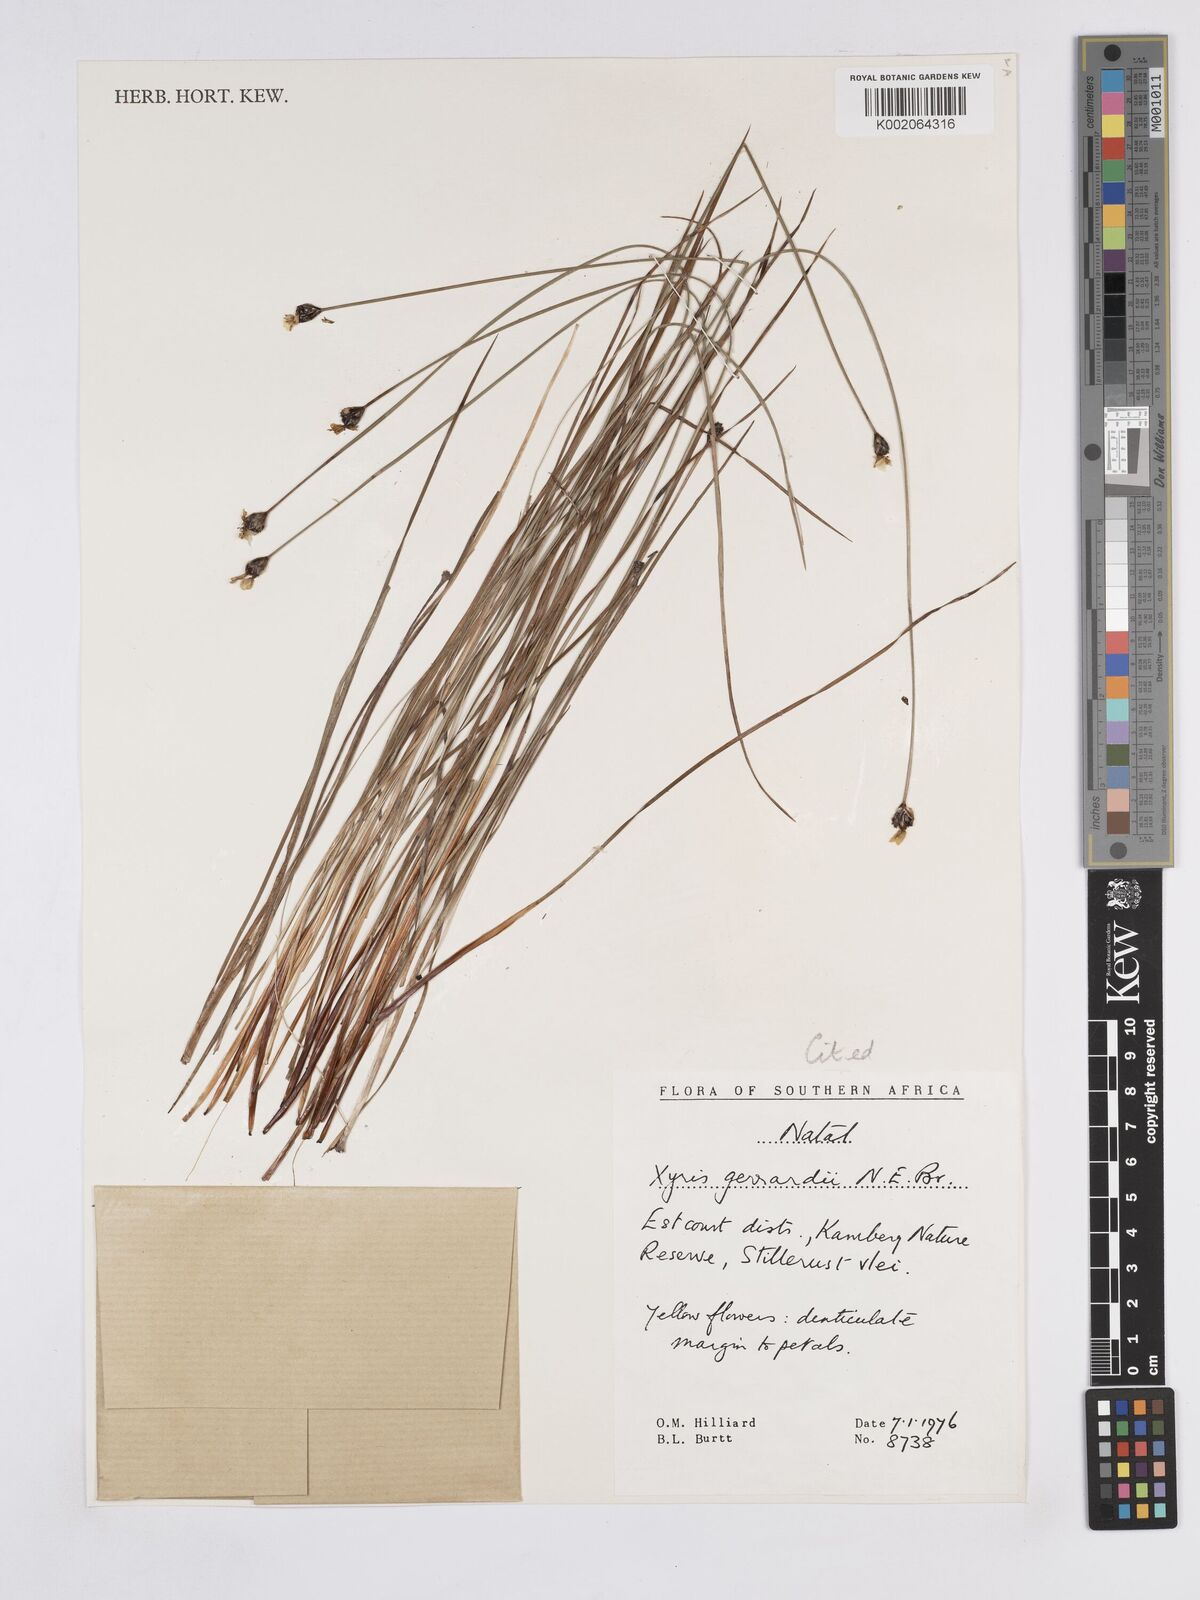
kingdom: Plantae
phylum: Tracheophyta
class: Liliopsida
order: Poales
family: Xyridaceae
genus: Xyris
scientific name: Xyris gerrardii
